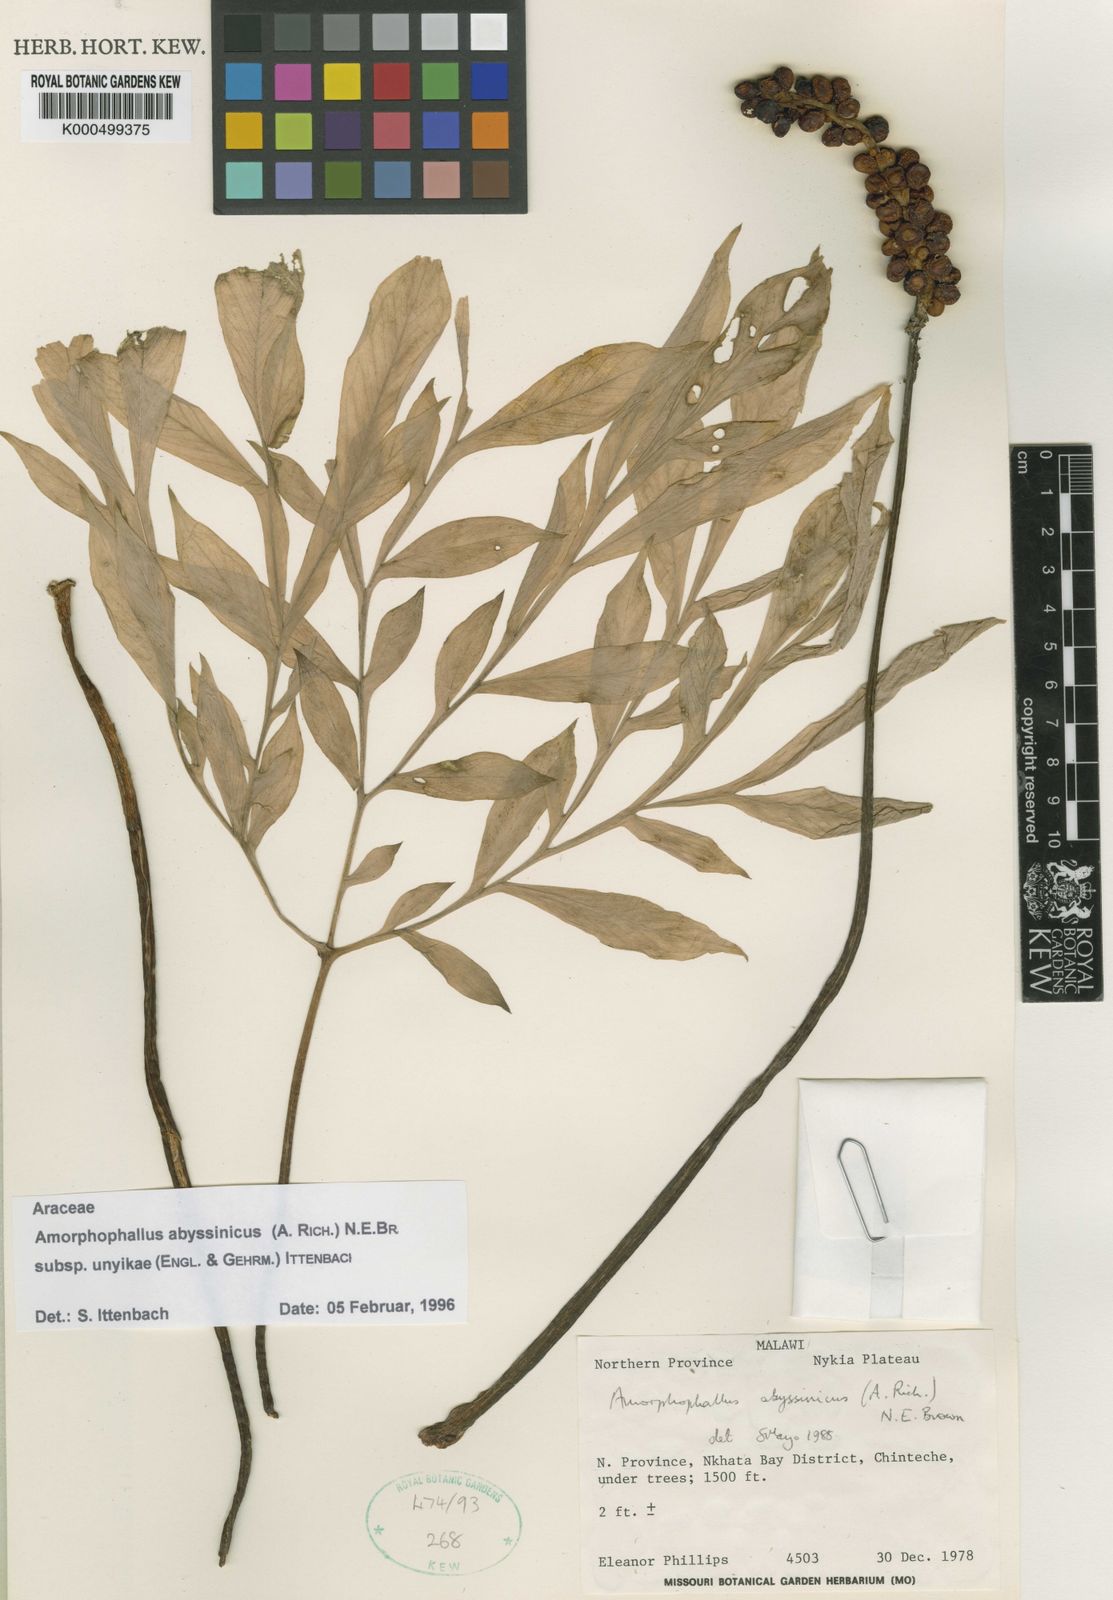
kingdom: Plantae
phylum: Tracheophyta
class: Liliopsida
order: Alismatales
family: Araceae
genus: Amorphophallus
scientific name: Amorphophallus
